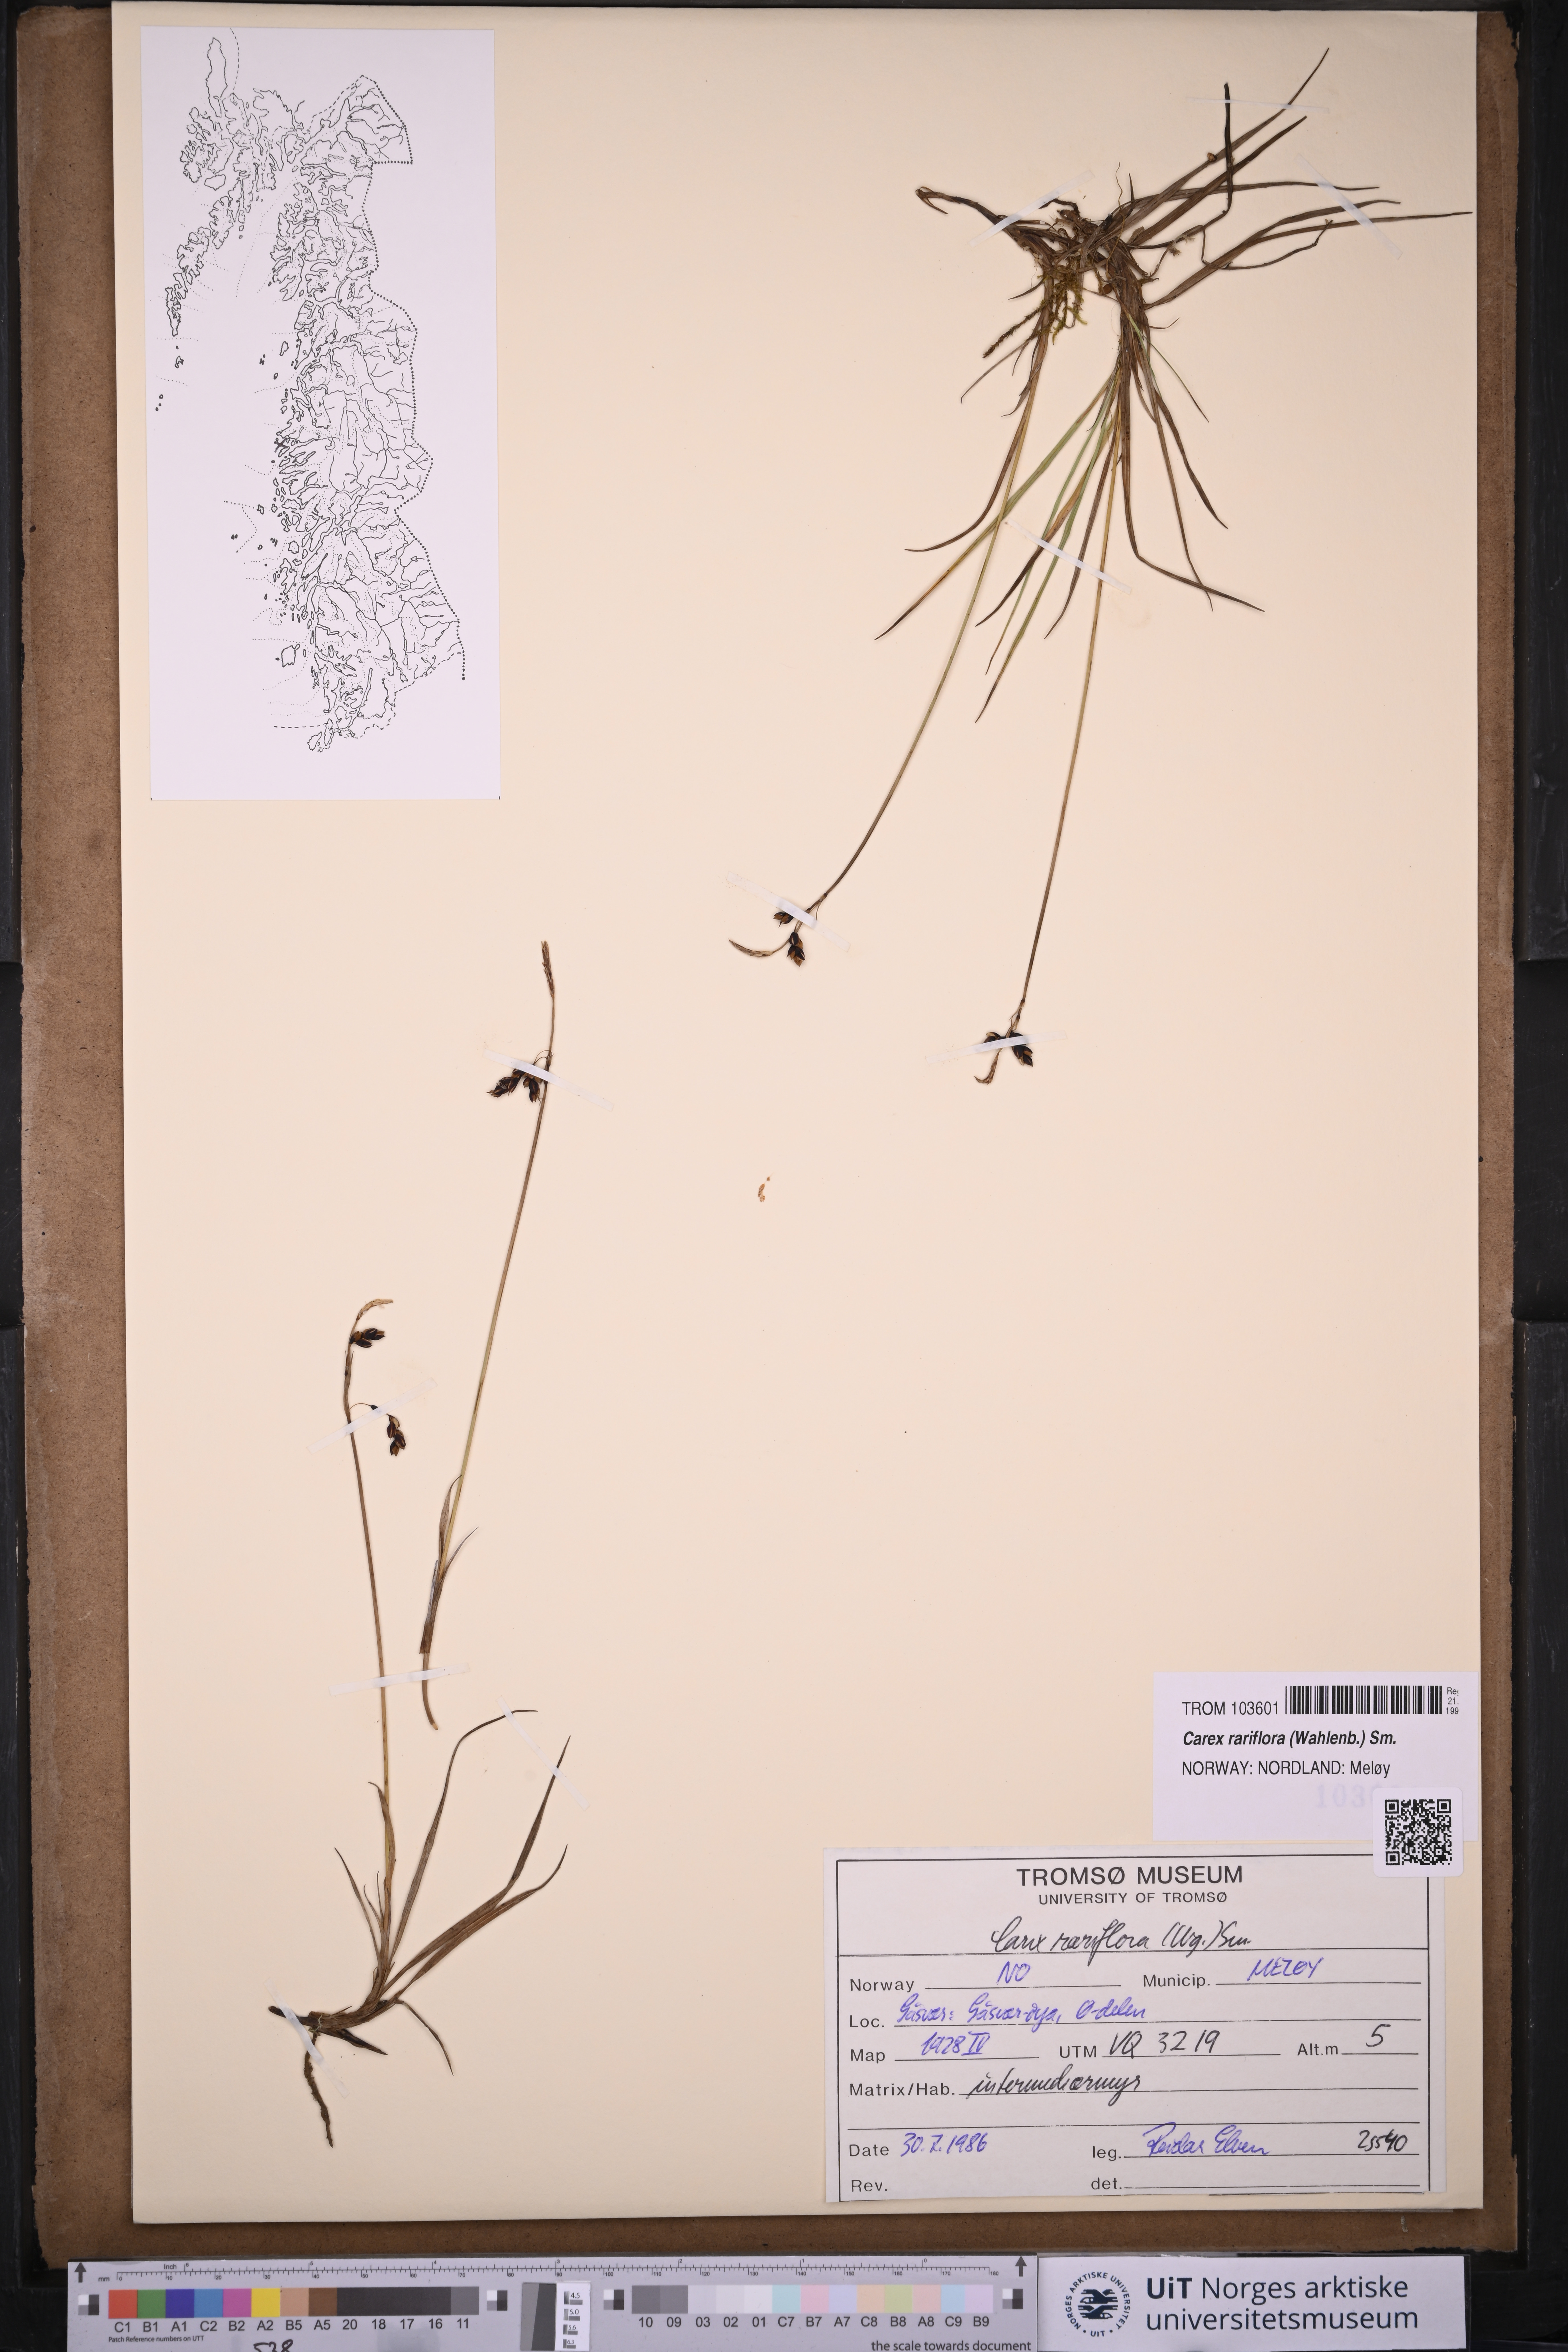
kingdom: Plantae
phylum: Tracheophyta
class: Liliopsida
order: Poales
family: Cyperaceae
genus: Carex
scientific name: Carex rariflora
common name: Loose-flowered alpine sedge
